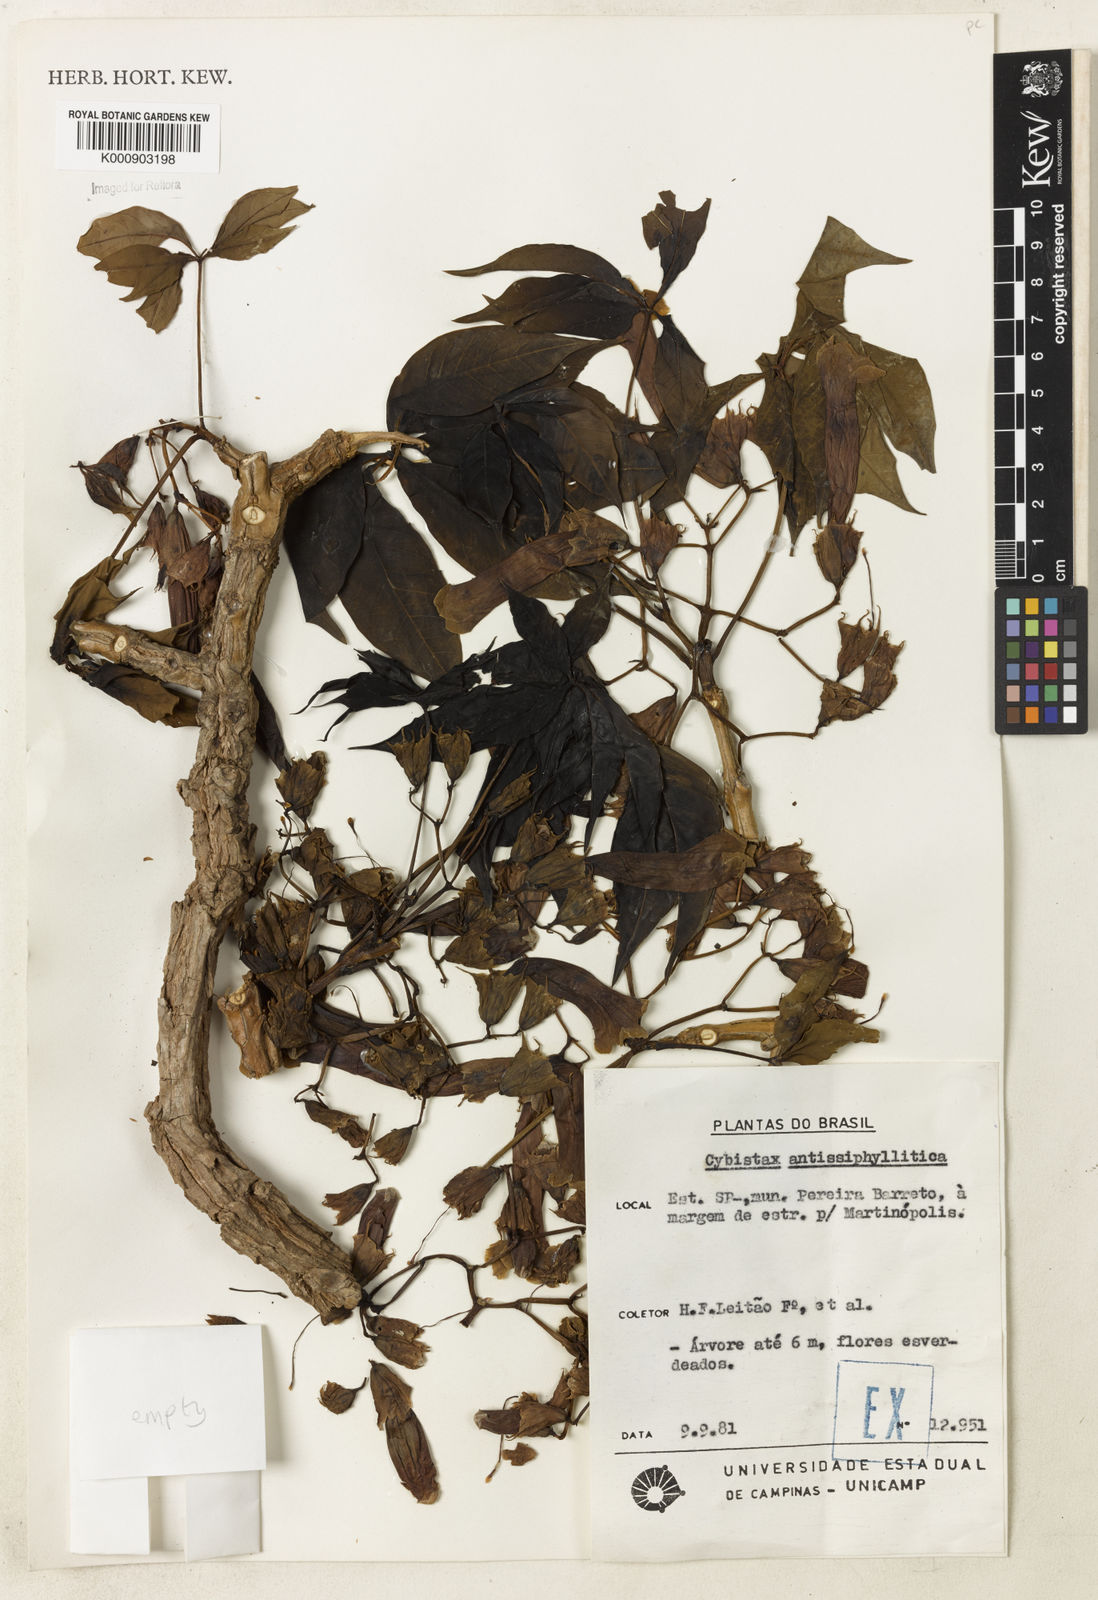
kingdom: Plantae
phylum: Tracheophyta
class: Magnoliopsida
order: Lamiales
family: Bignoniaceae
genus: Cybistax
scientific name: Cybistax antisyphilitica
